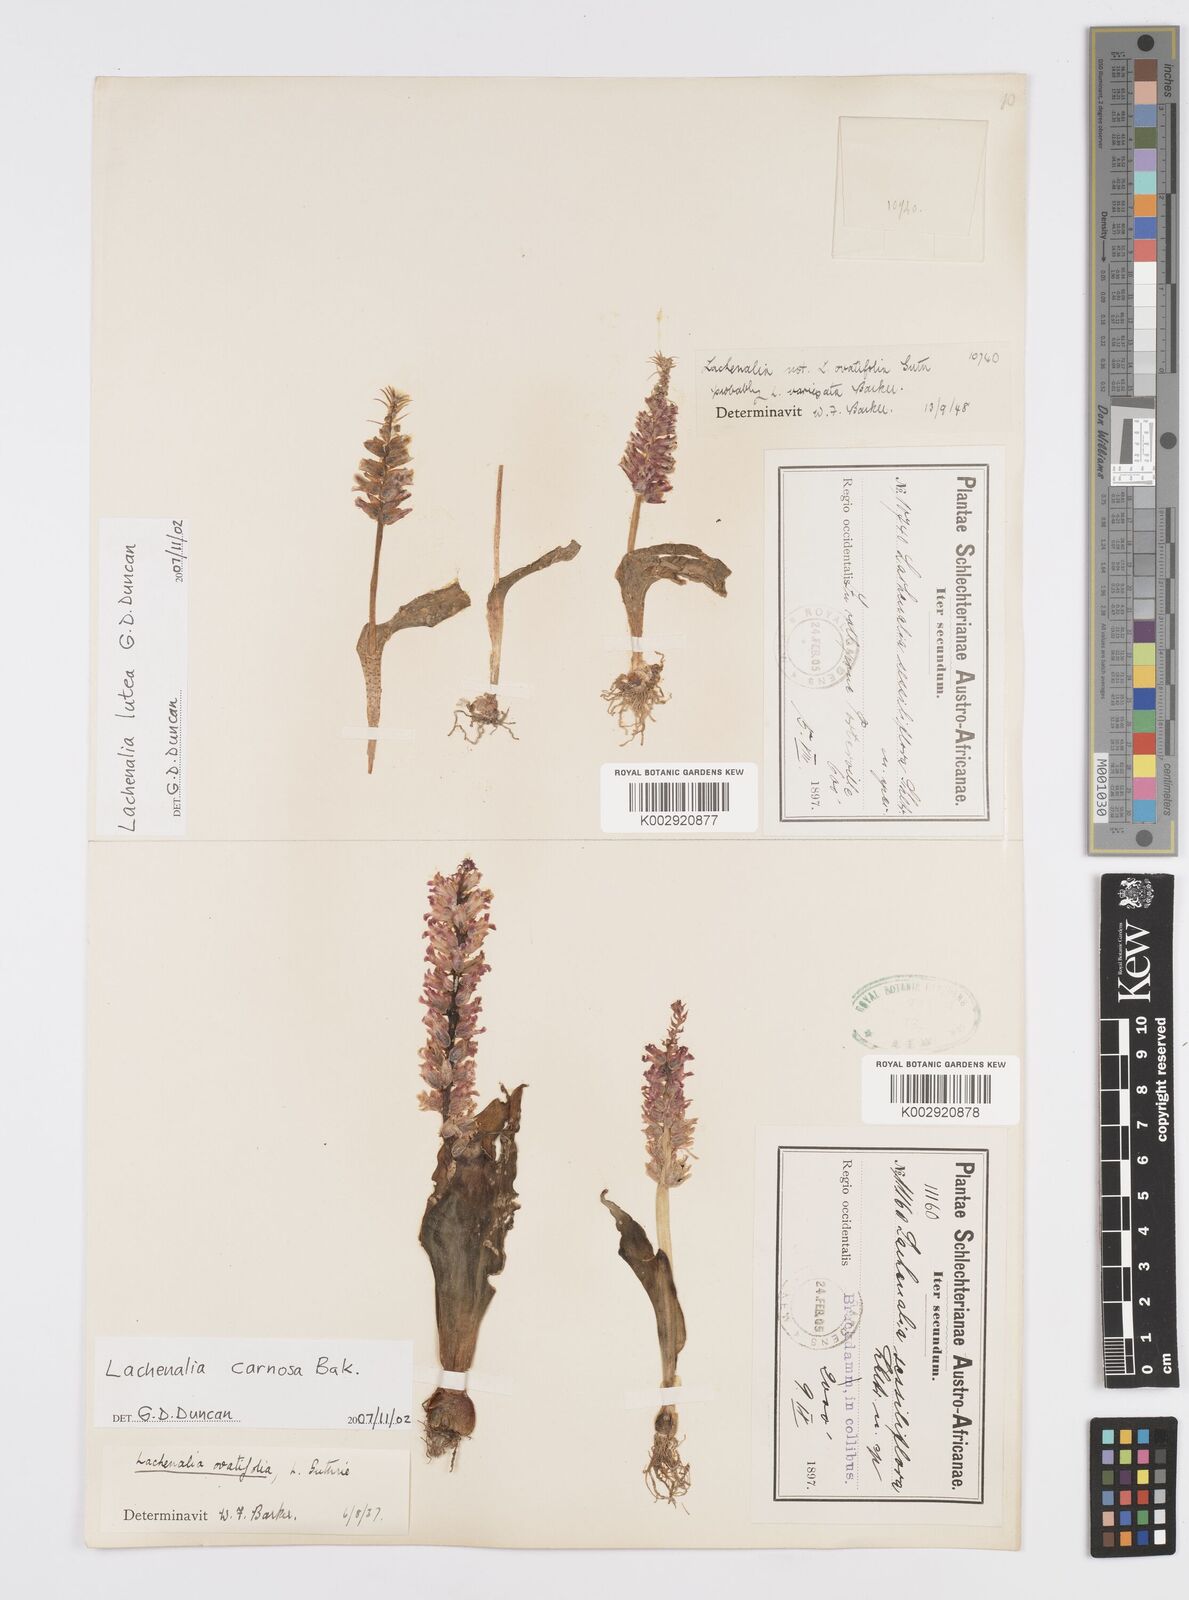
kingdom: Plantae
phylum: Tracheophyta
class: Liliopsida
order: Asparagales
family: Asparagaceae
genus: Lachenalia
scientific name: Lachenalia carnosa
